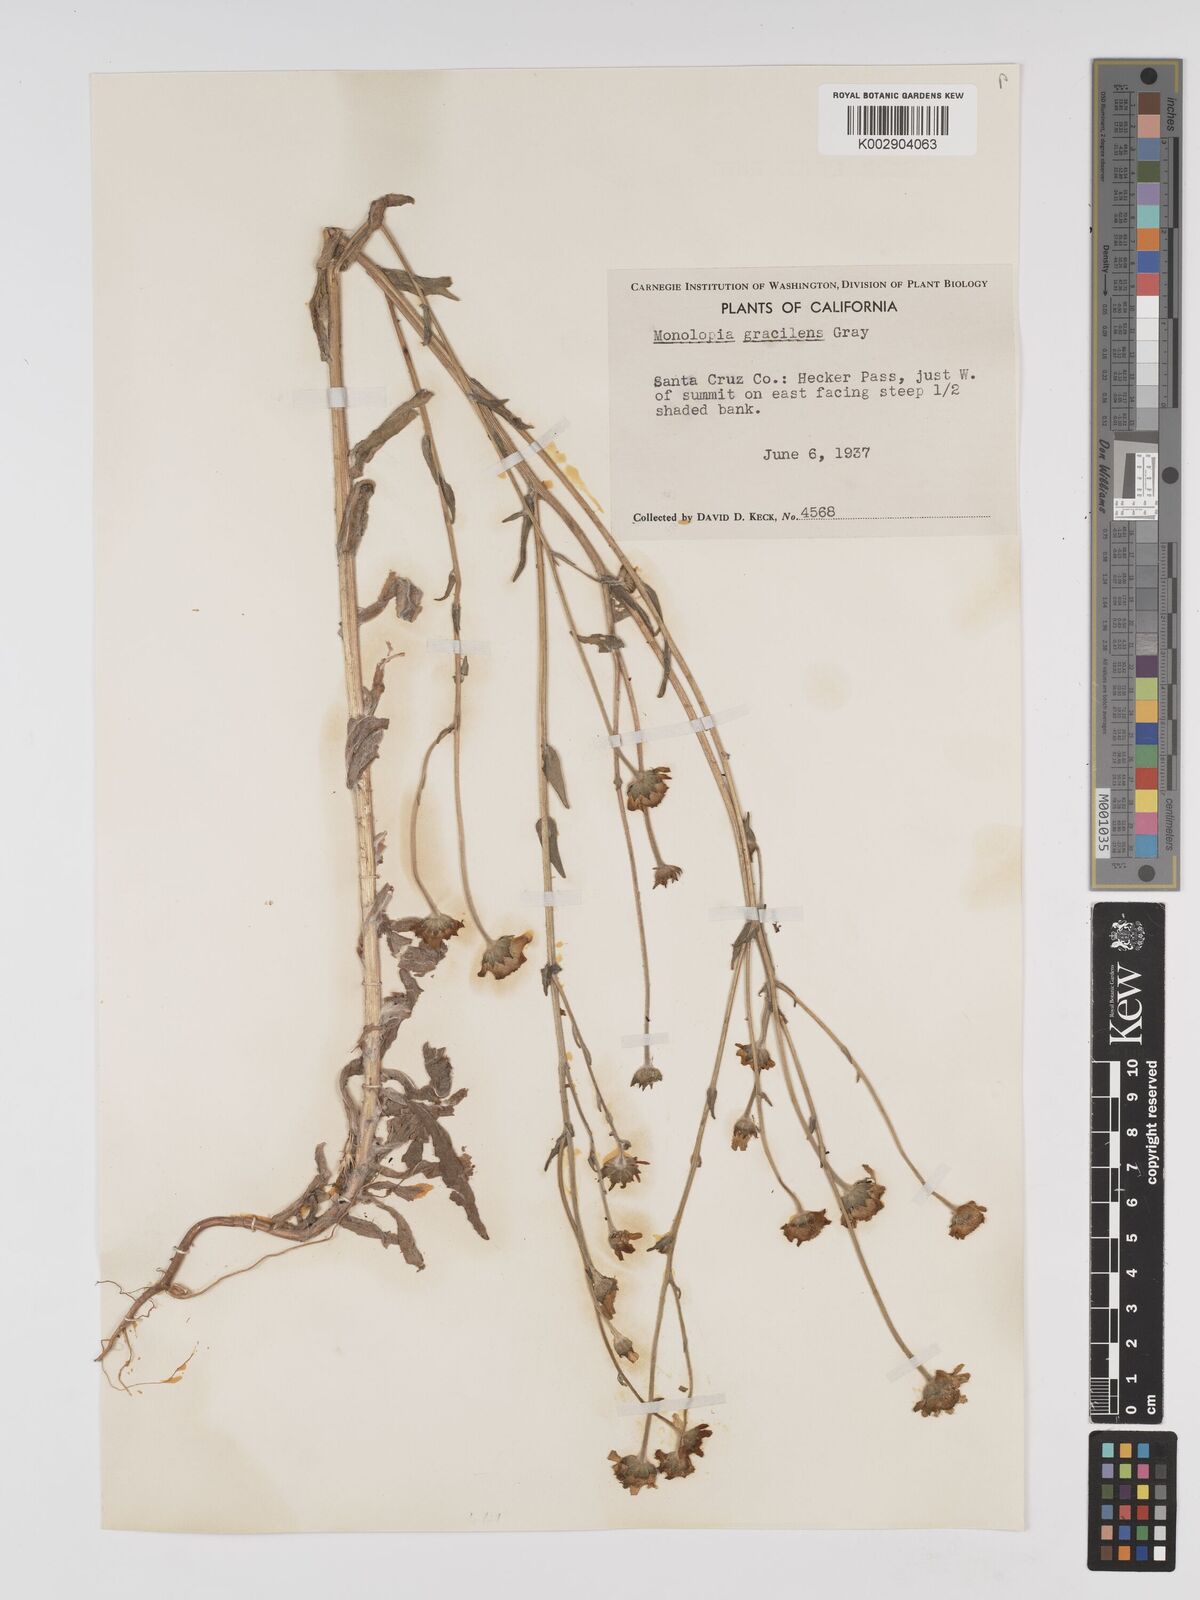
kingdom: Plantae
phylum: Tracheophyta
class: Magnoliopsida
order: Asterales
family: Asteraceae
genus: Monolopia
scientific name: Monolopia gracilens
